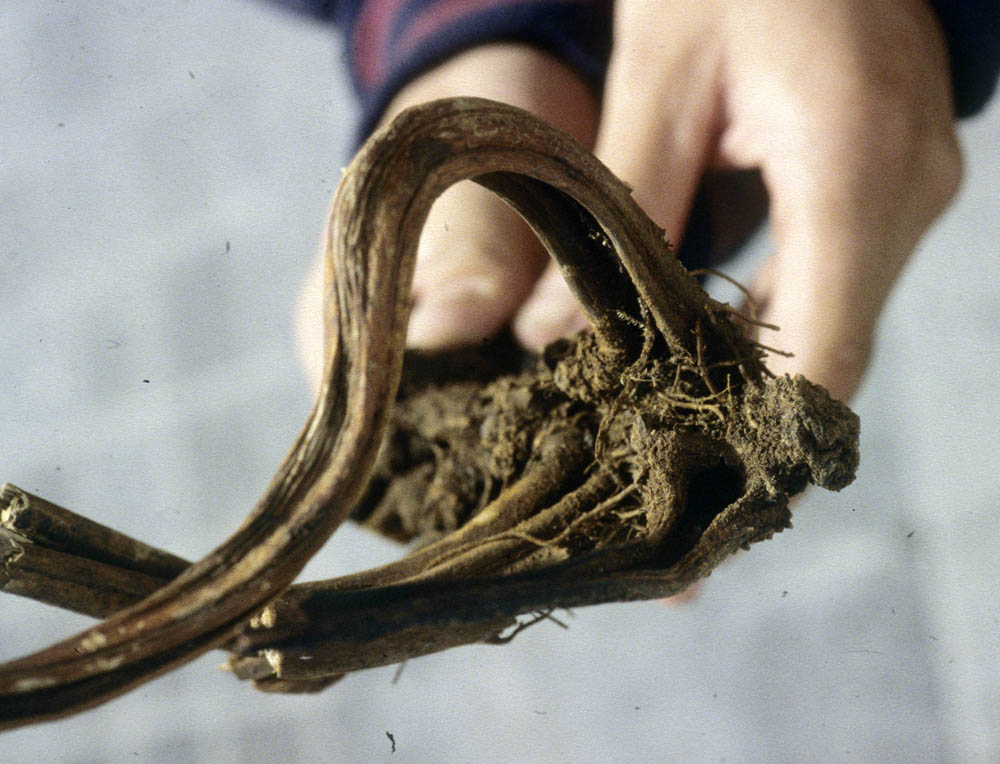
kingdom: Plantae
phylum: Tracheophyta
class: Polypodiopsida
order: Polypodiales
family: Dennstaedtiaceae
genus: Dennstaedtia
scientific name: Dennstaedtia mathewsii
